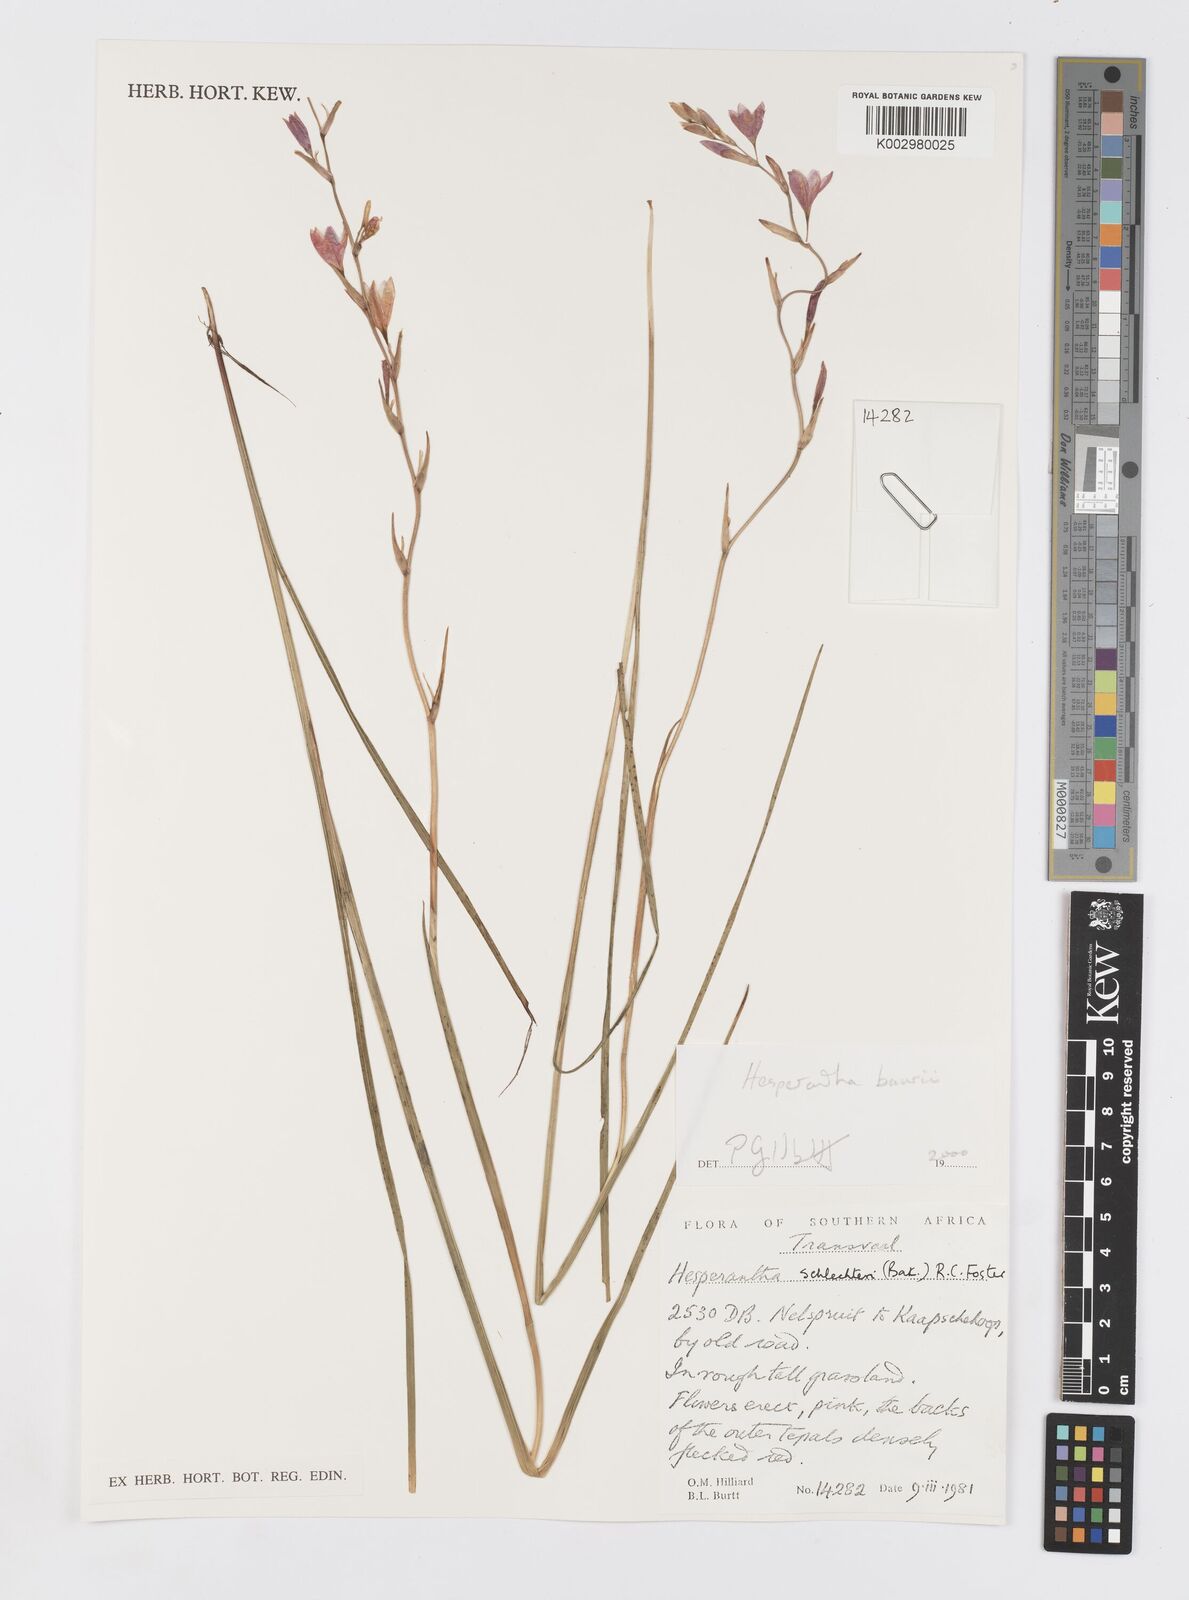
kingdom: Plantae
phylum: Tracheophyta
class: Liliopsida
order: Asparagales
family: Iridaceae
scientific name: Iridaceae
